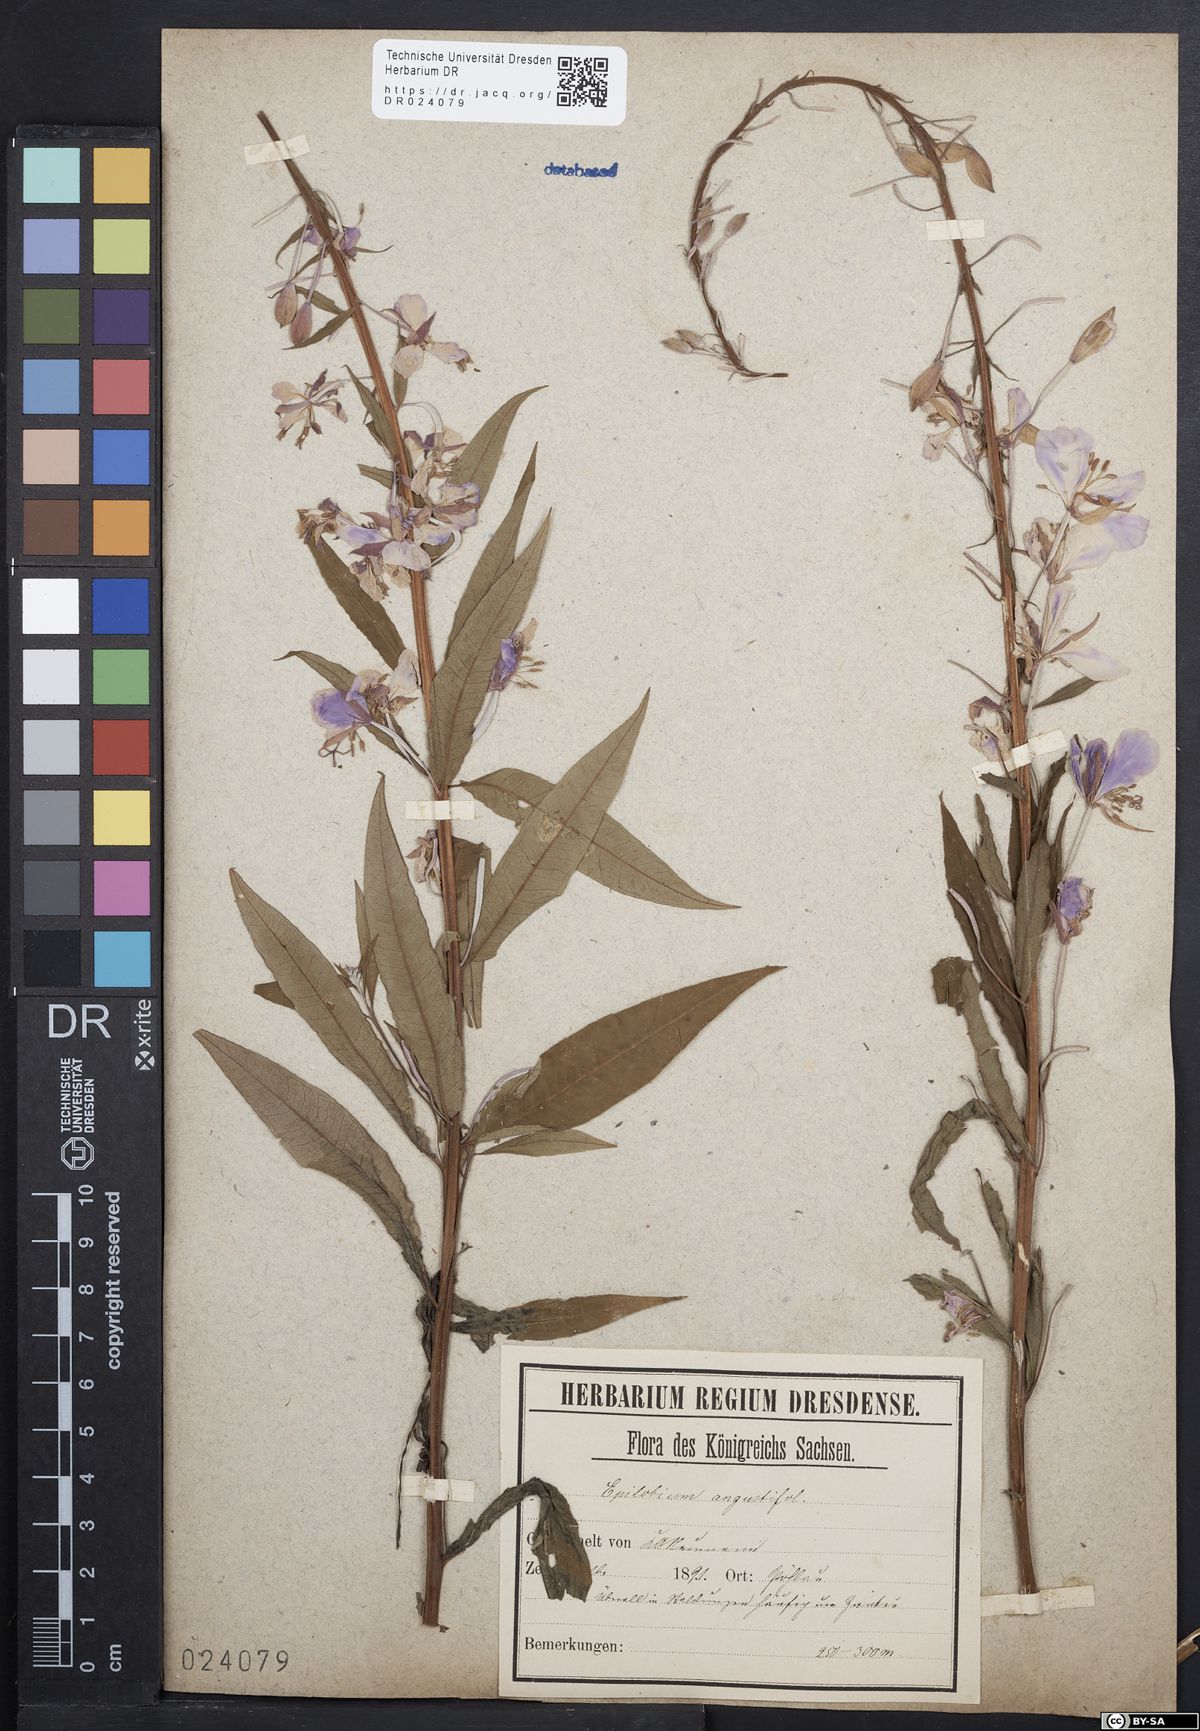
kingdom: Plantae
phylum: Tracheophyta
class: Magnoliopsida
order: Myrtales
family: Onagraceae
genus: Chamaenerion
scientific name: Chamaenerion angustifolium
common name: Fireweed
